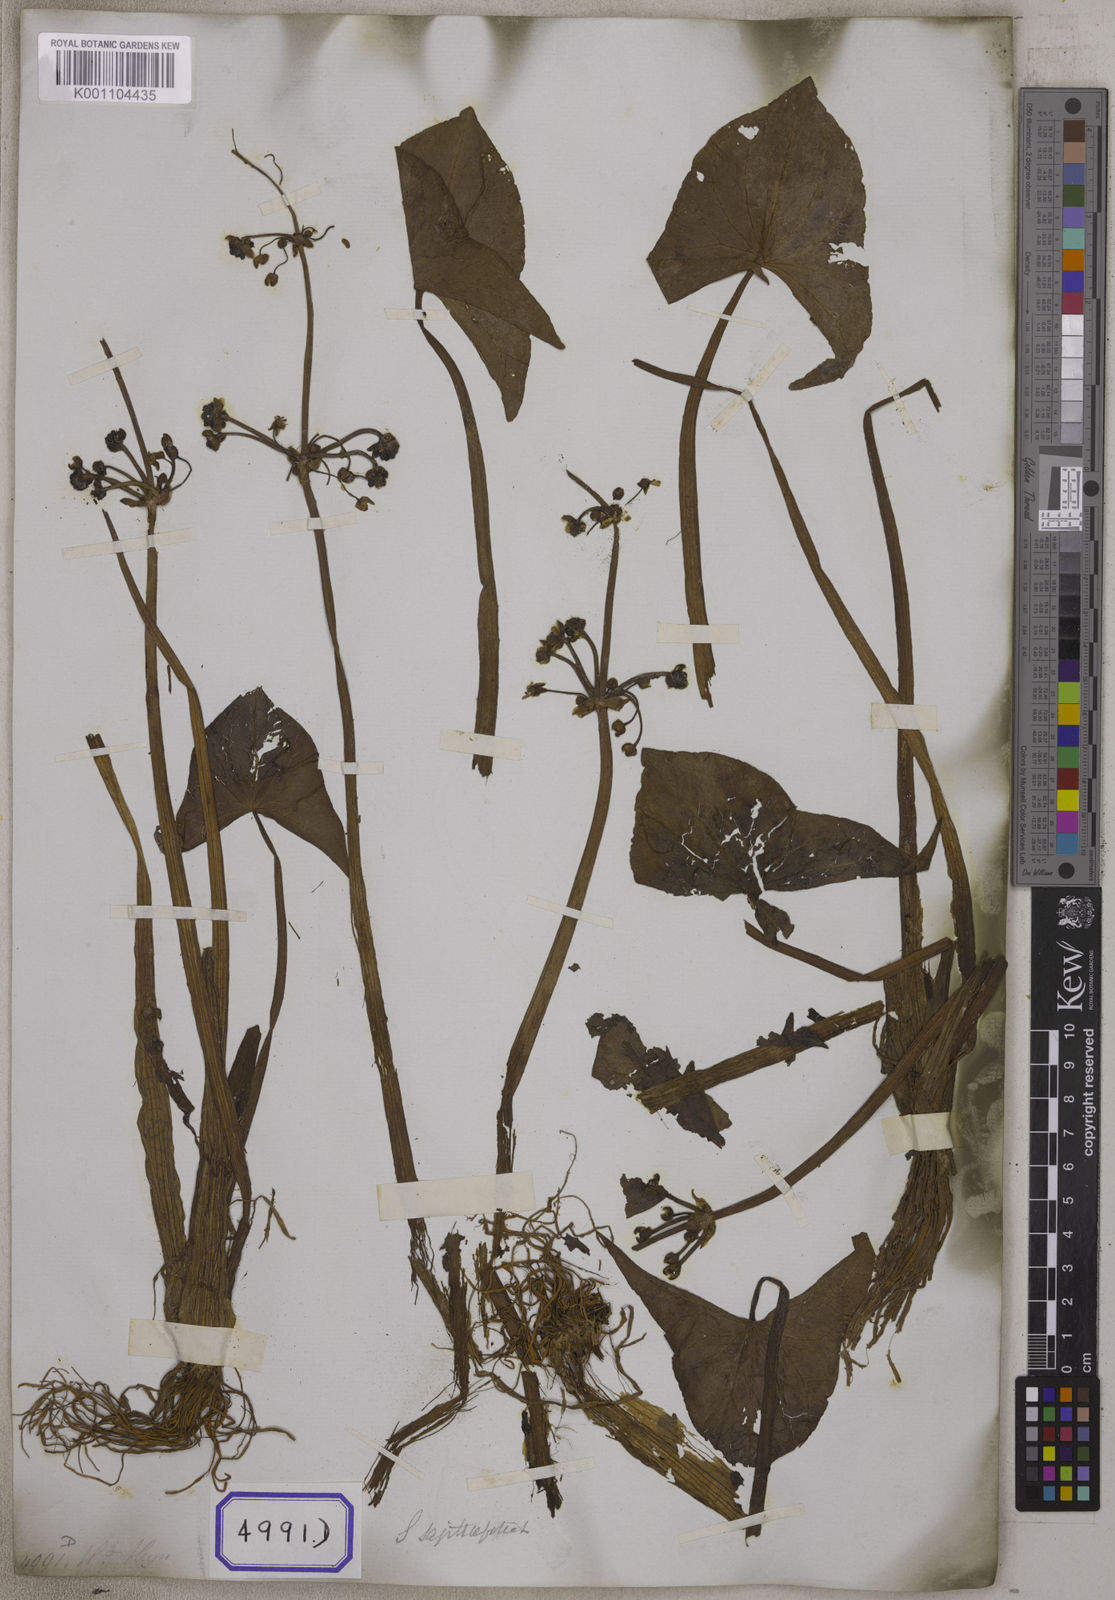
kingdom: Plantae
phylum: Tracheophyta
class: Liliopsida
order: Alismatales
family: Alismataceae
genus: Sagittaria
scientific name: Sagittaria sagittifolia
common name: Arrowhead
